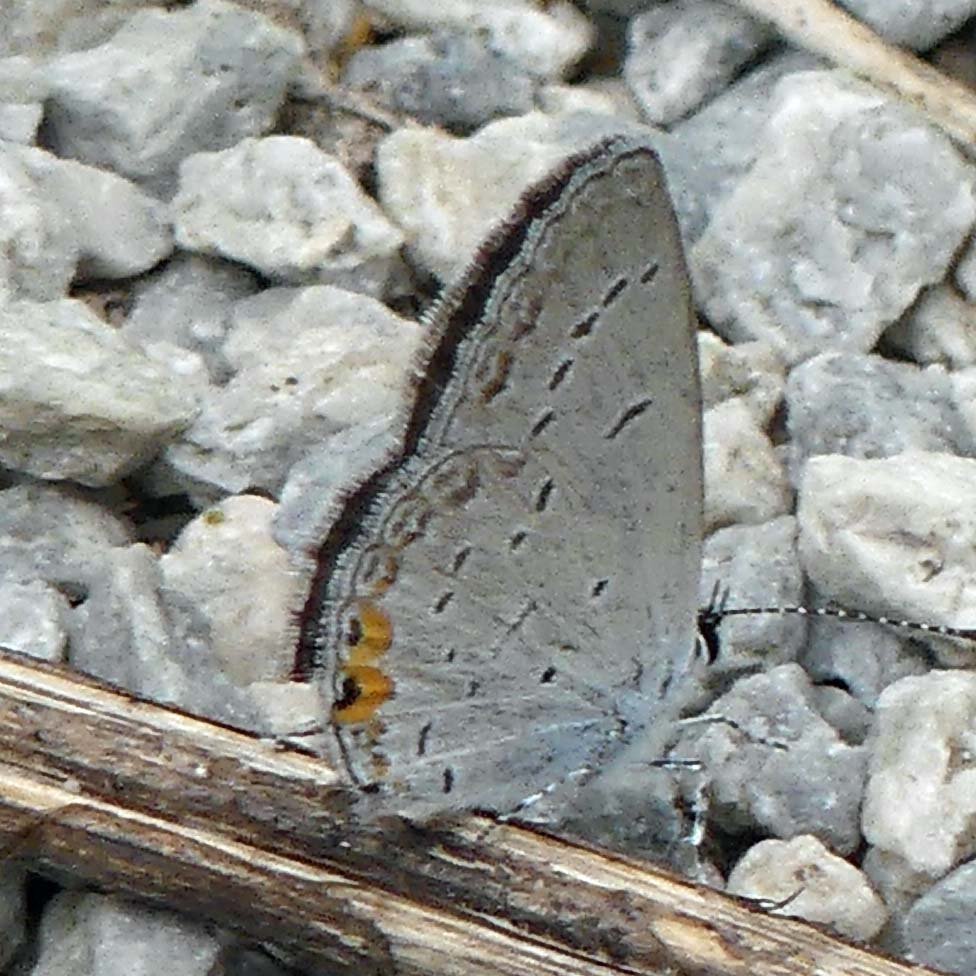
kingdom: Animalia
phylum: Arthropoda
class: Insecta
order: Lepidoptera
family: Lycaenidae
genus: Elkalyce
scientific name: Elkalyce comyntas
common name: Eastern Tailed-Blue
